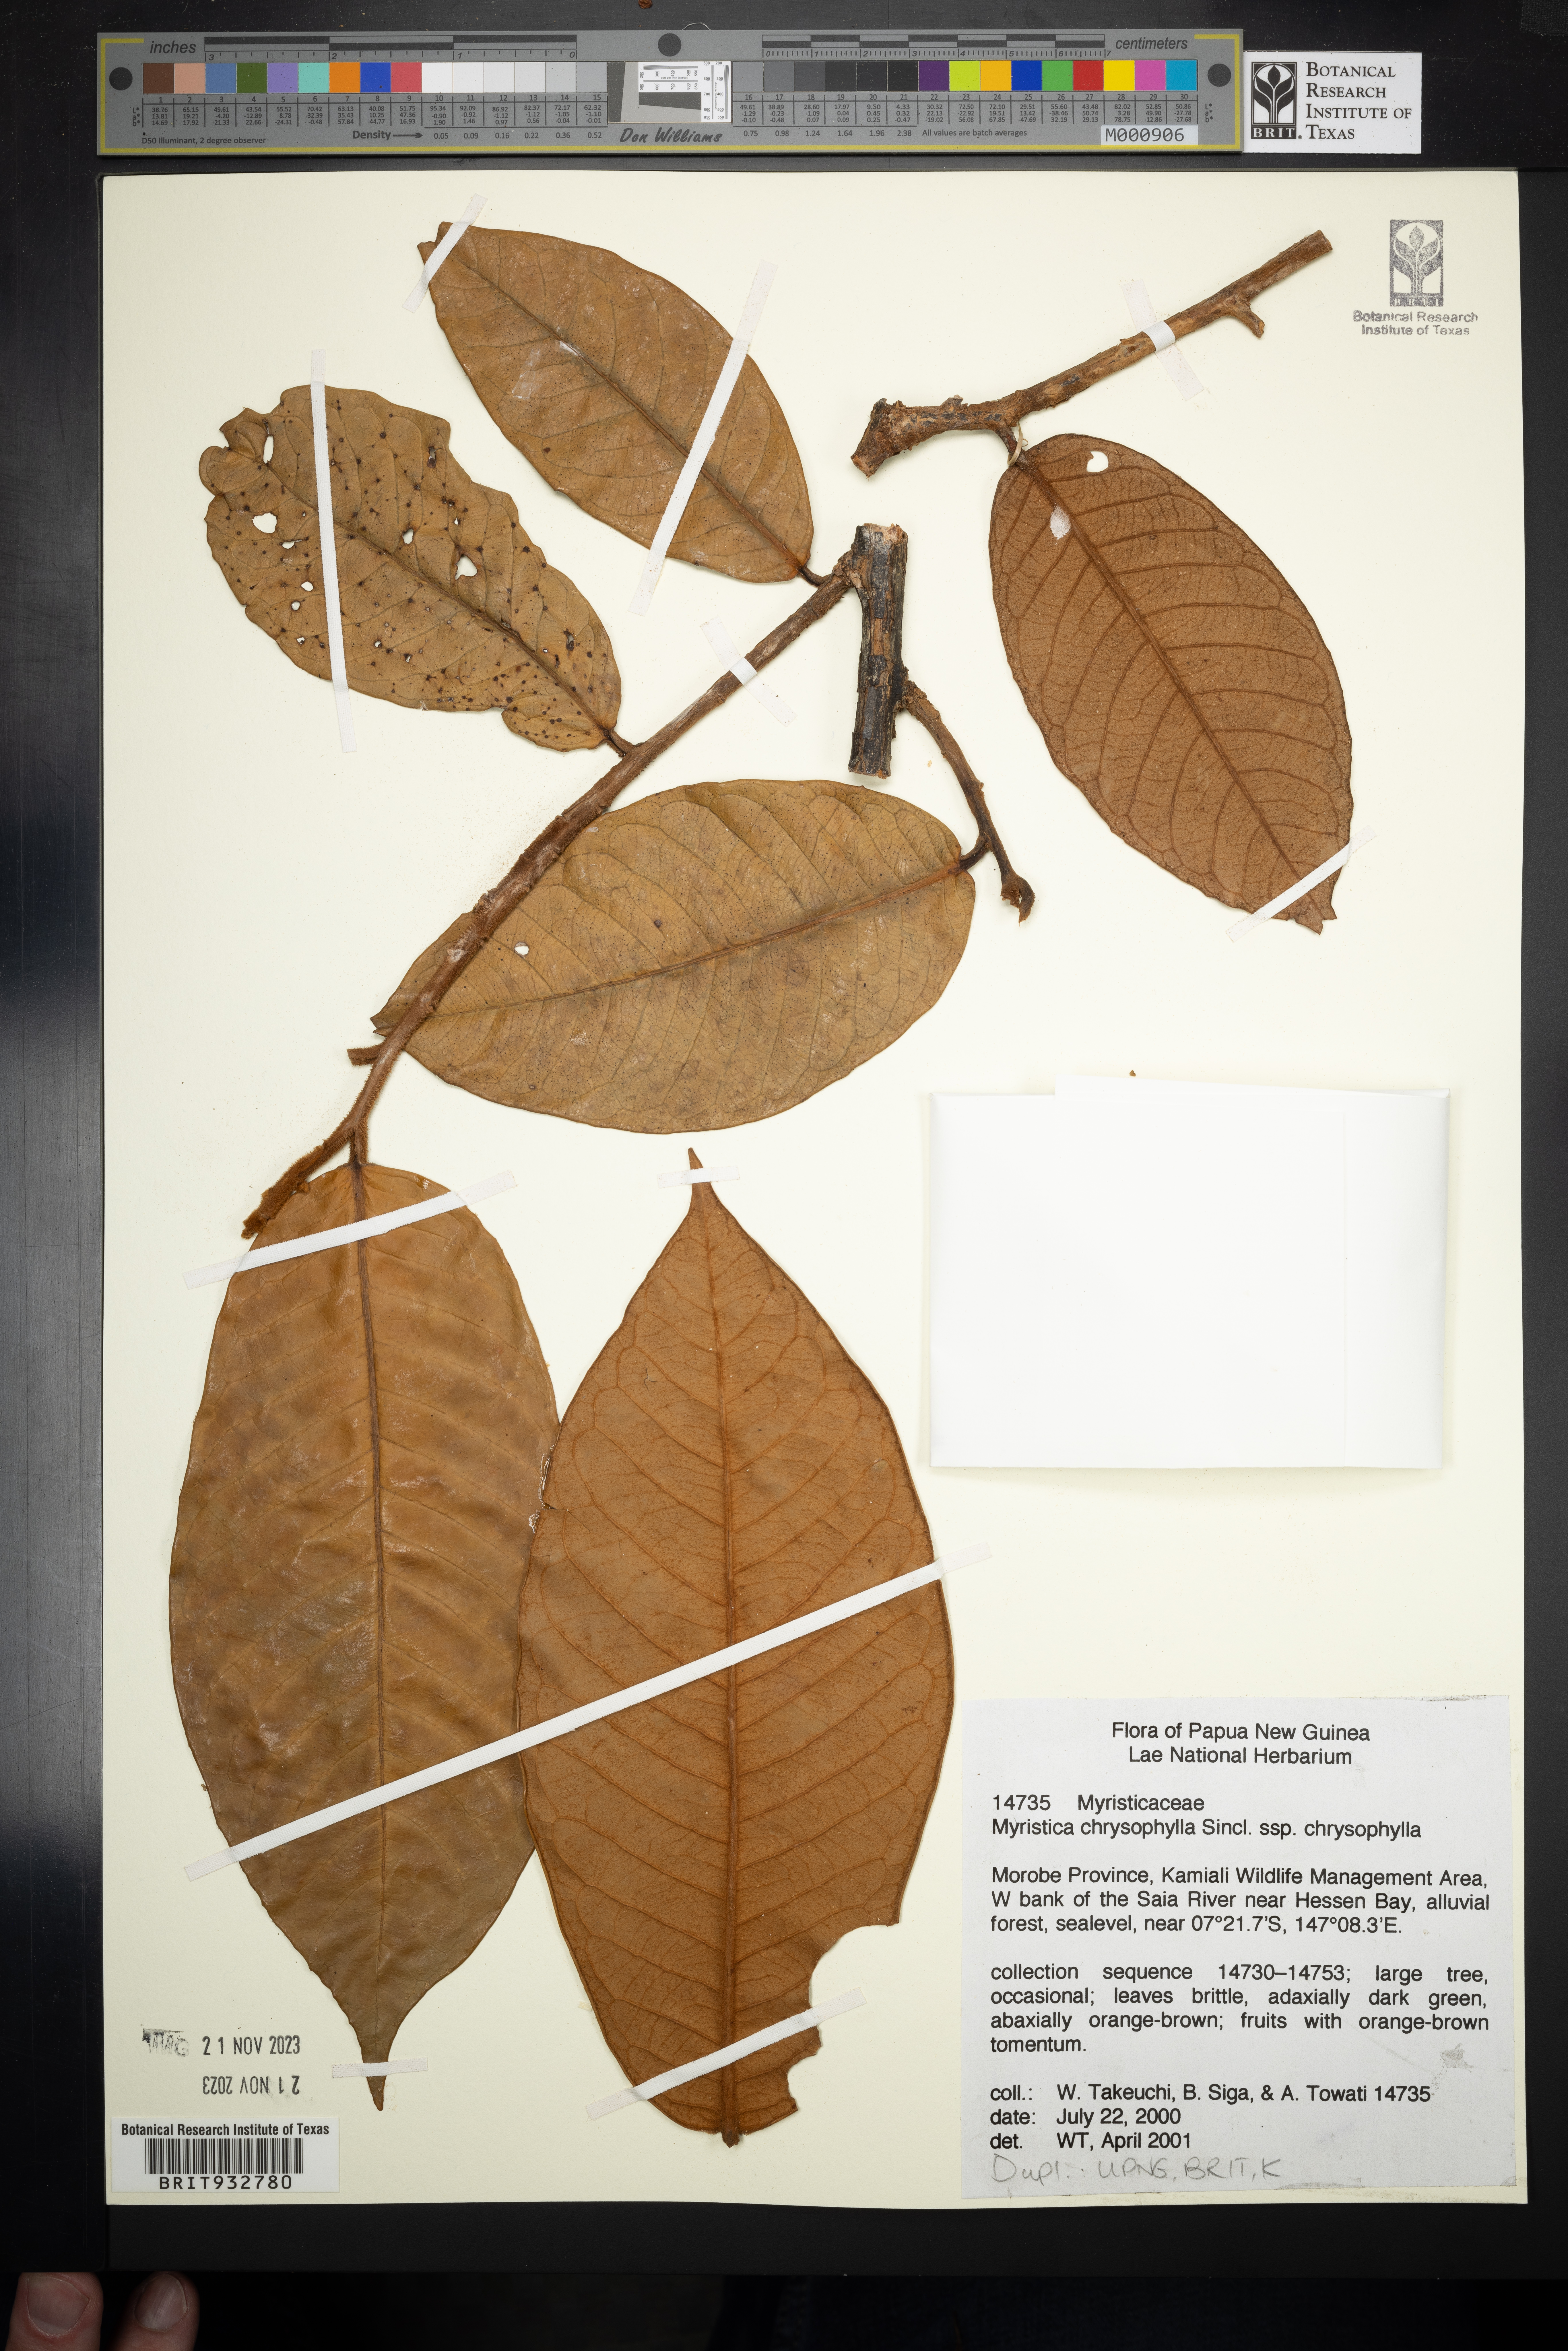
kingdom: Plantae
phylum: Tracheophyta
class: Magnoliopsida
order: Magnoliales
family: Myristicaceae
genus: Myristica
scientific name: Myristica
